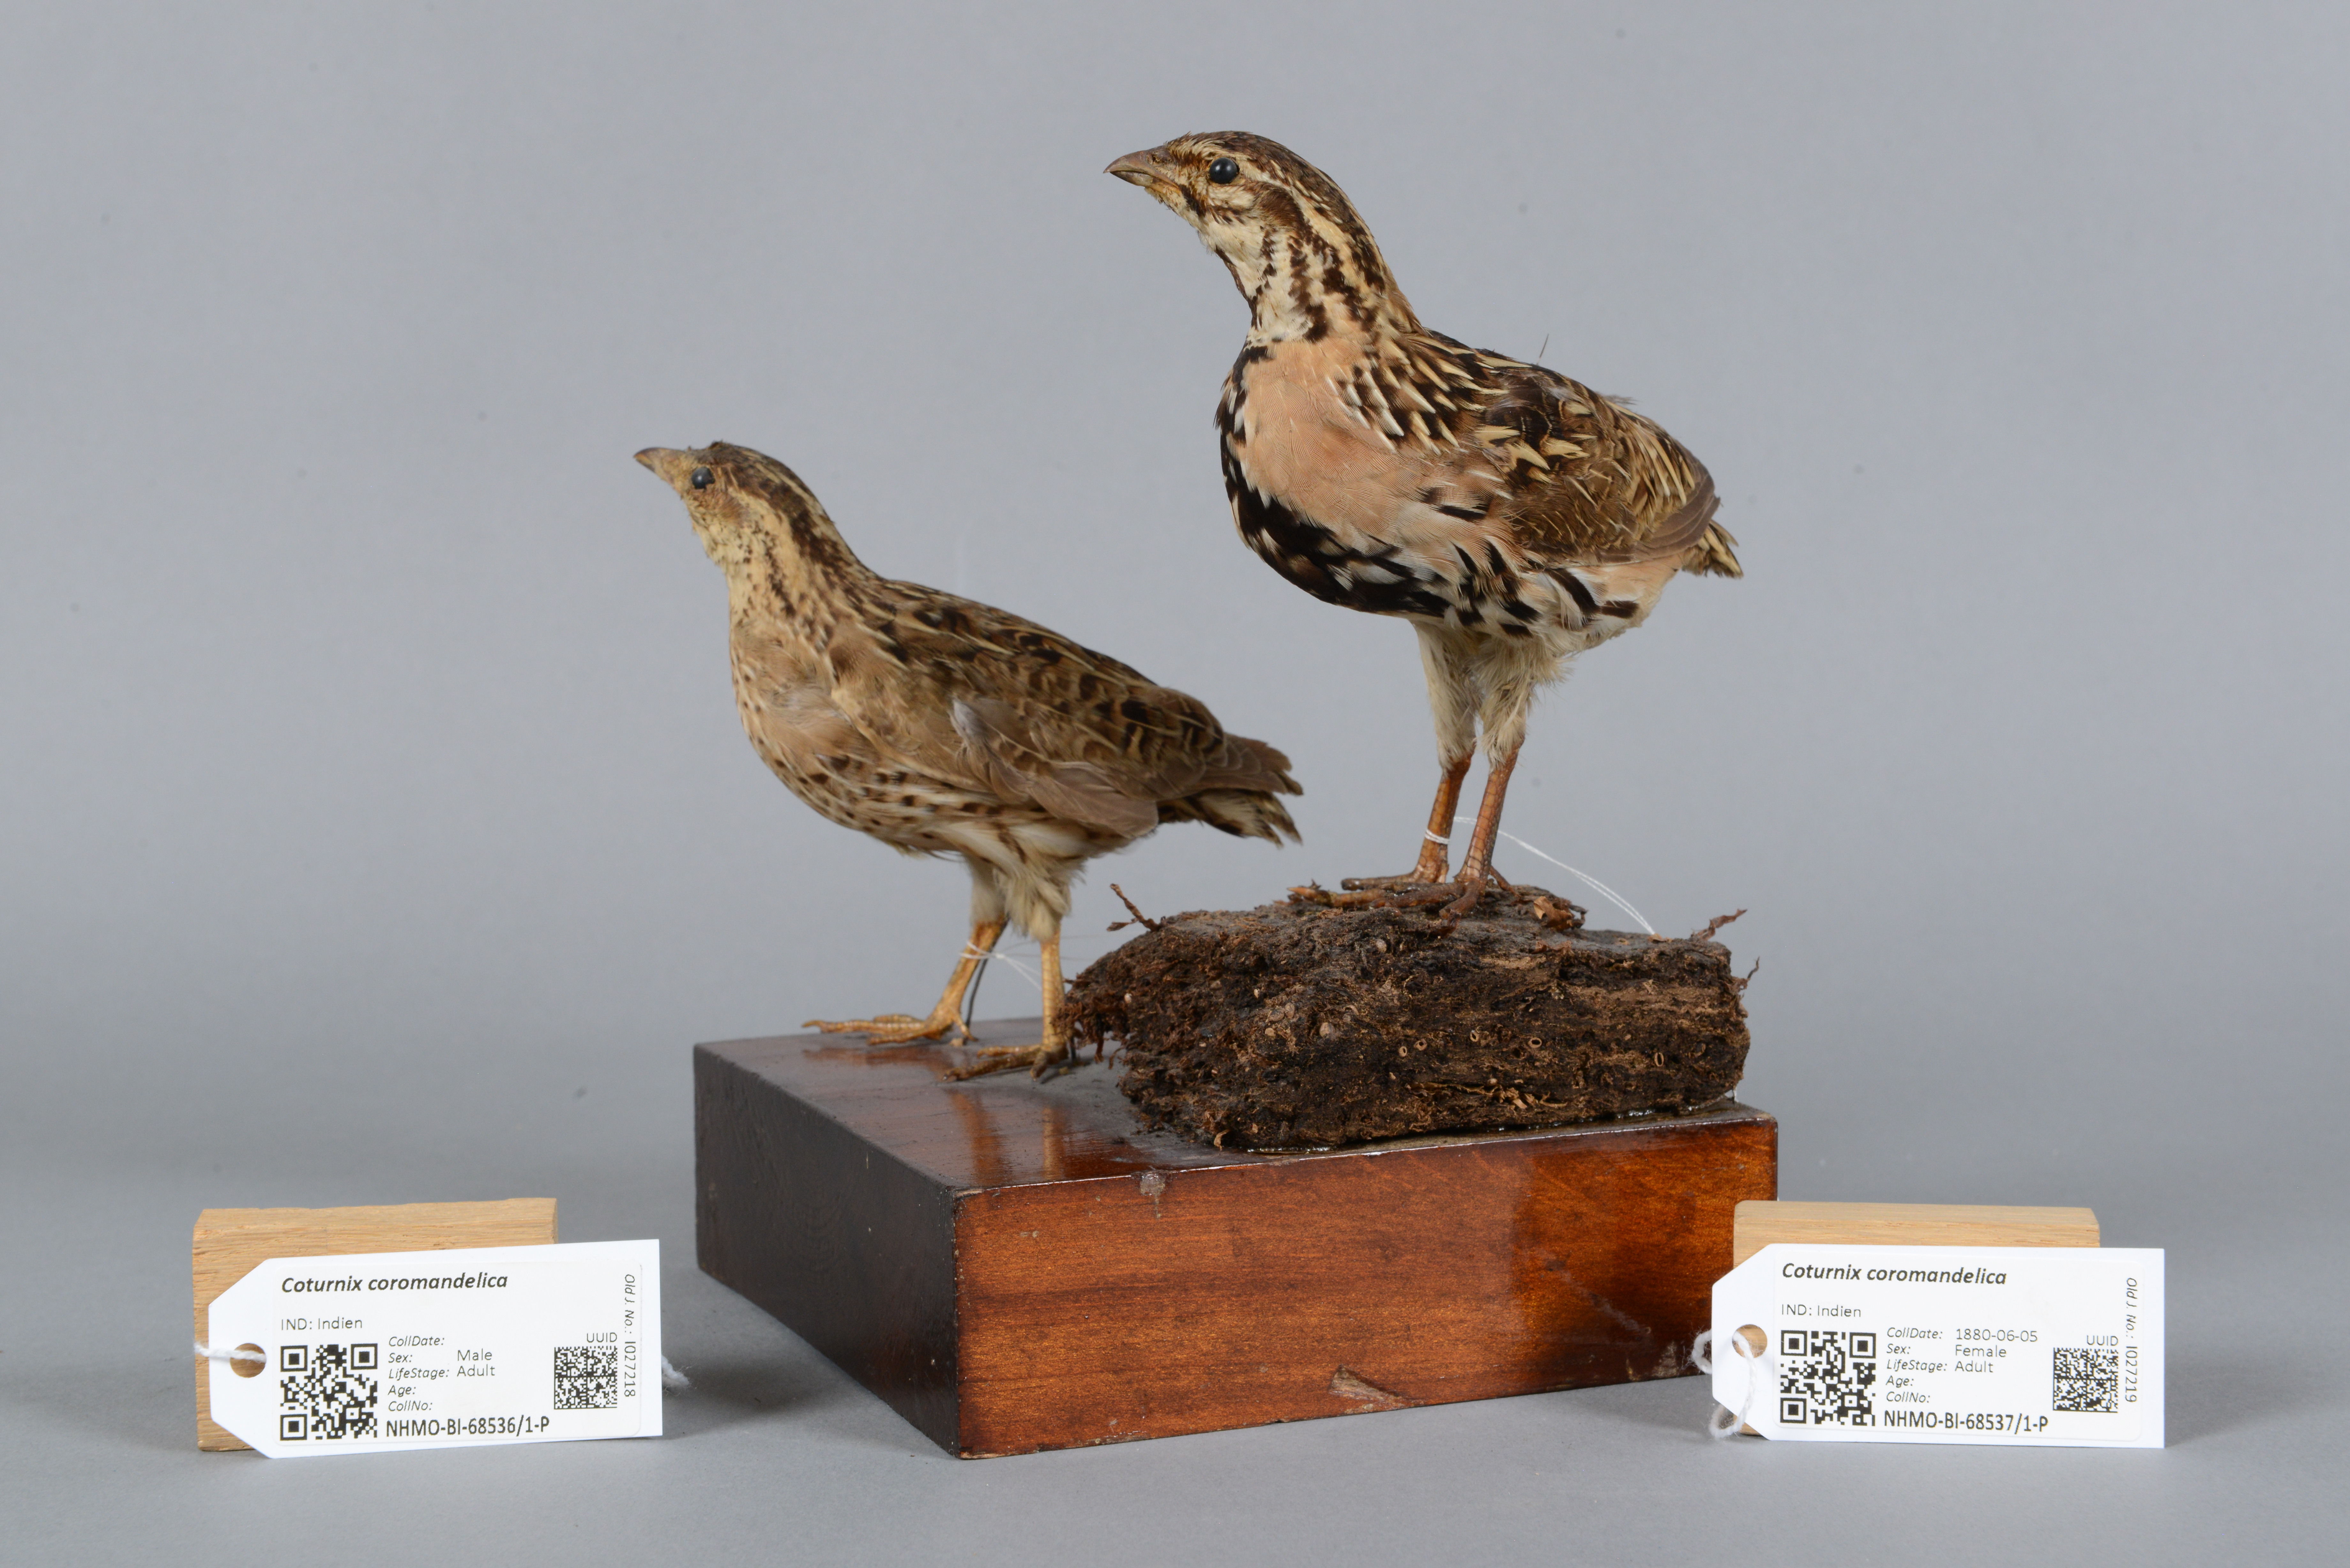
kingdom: Animalia
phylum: Chordata
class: Aves
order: Galliformes
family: Phasianidae
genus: Coturnix
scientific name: Coturnix coromandelica
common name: Rain quail
